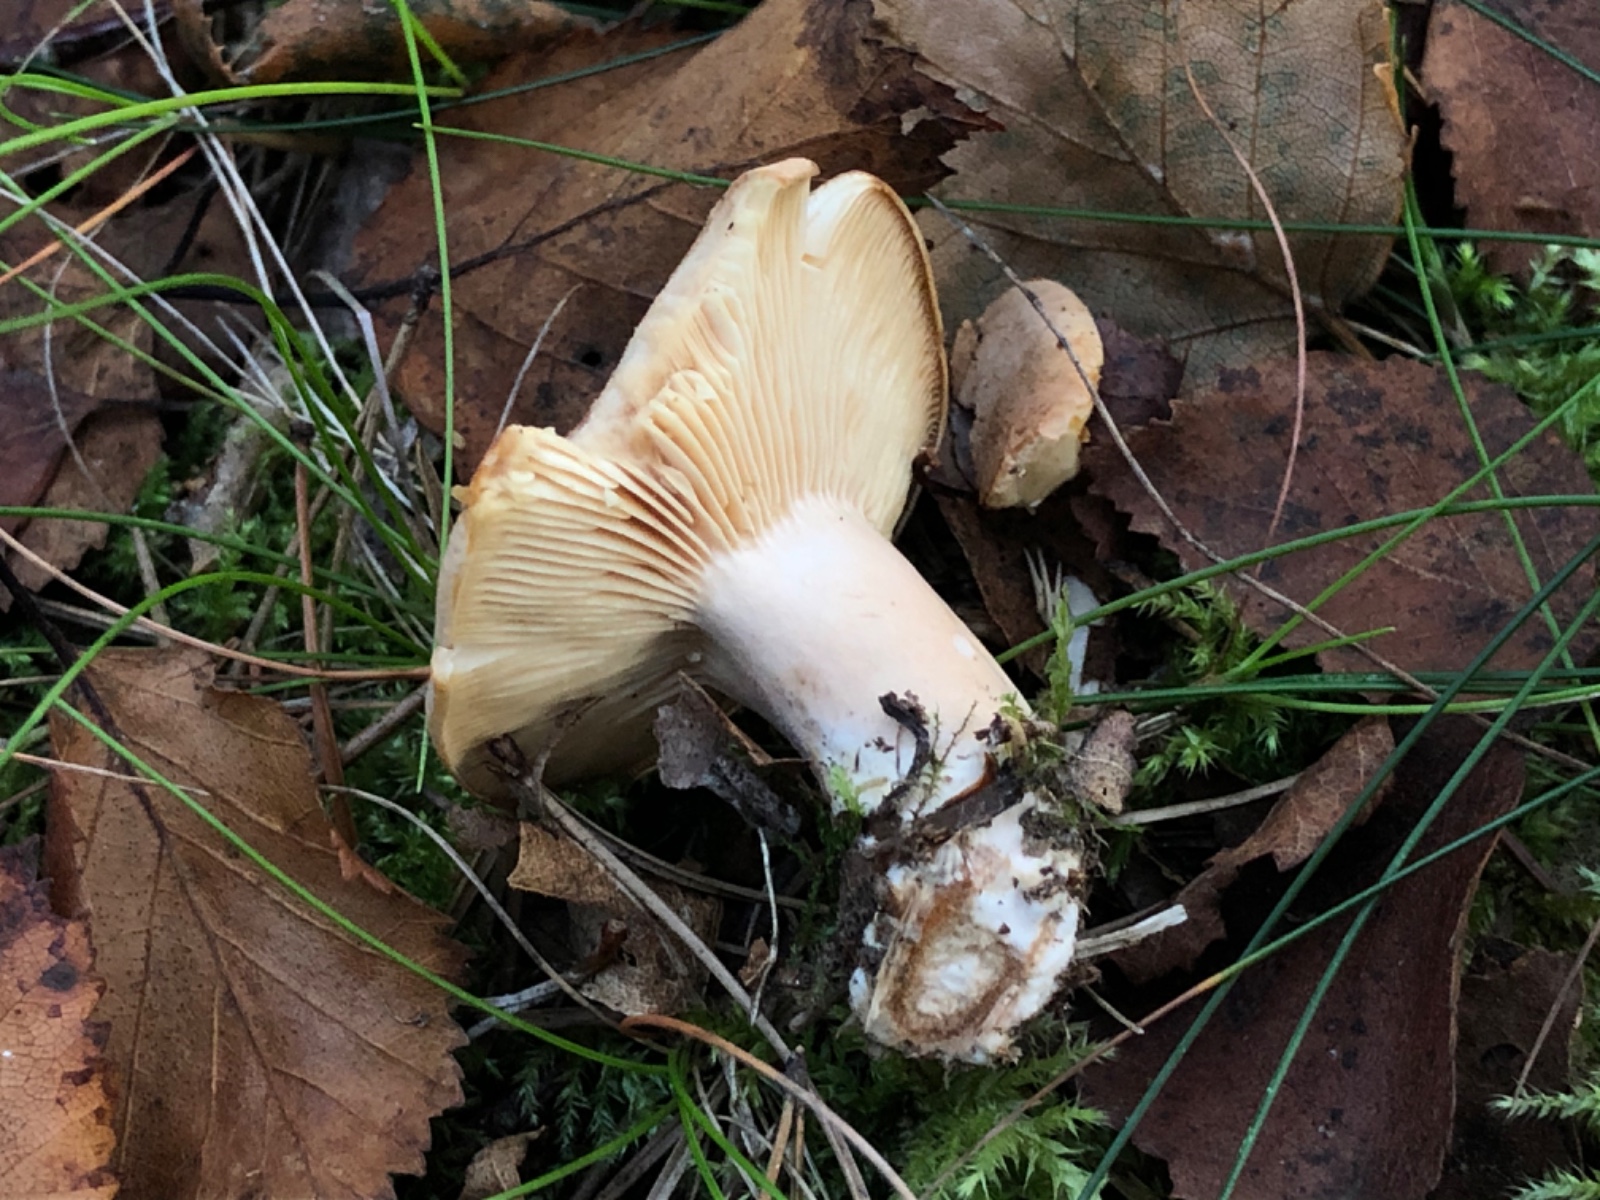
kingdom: Fungi
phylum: Basidiomycota
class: Agaricomycetes
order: Russulales
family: Russulaceae
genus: Lactarius
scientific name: Lactarius helvus
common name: mose-mælkehat
